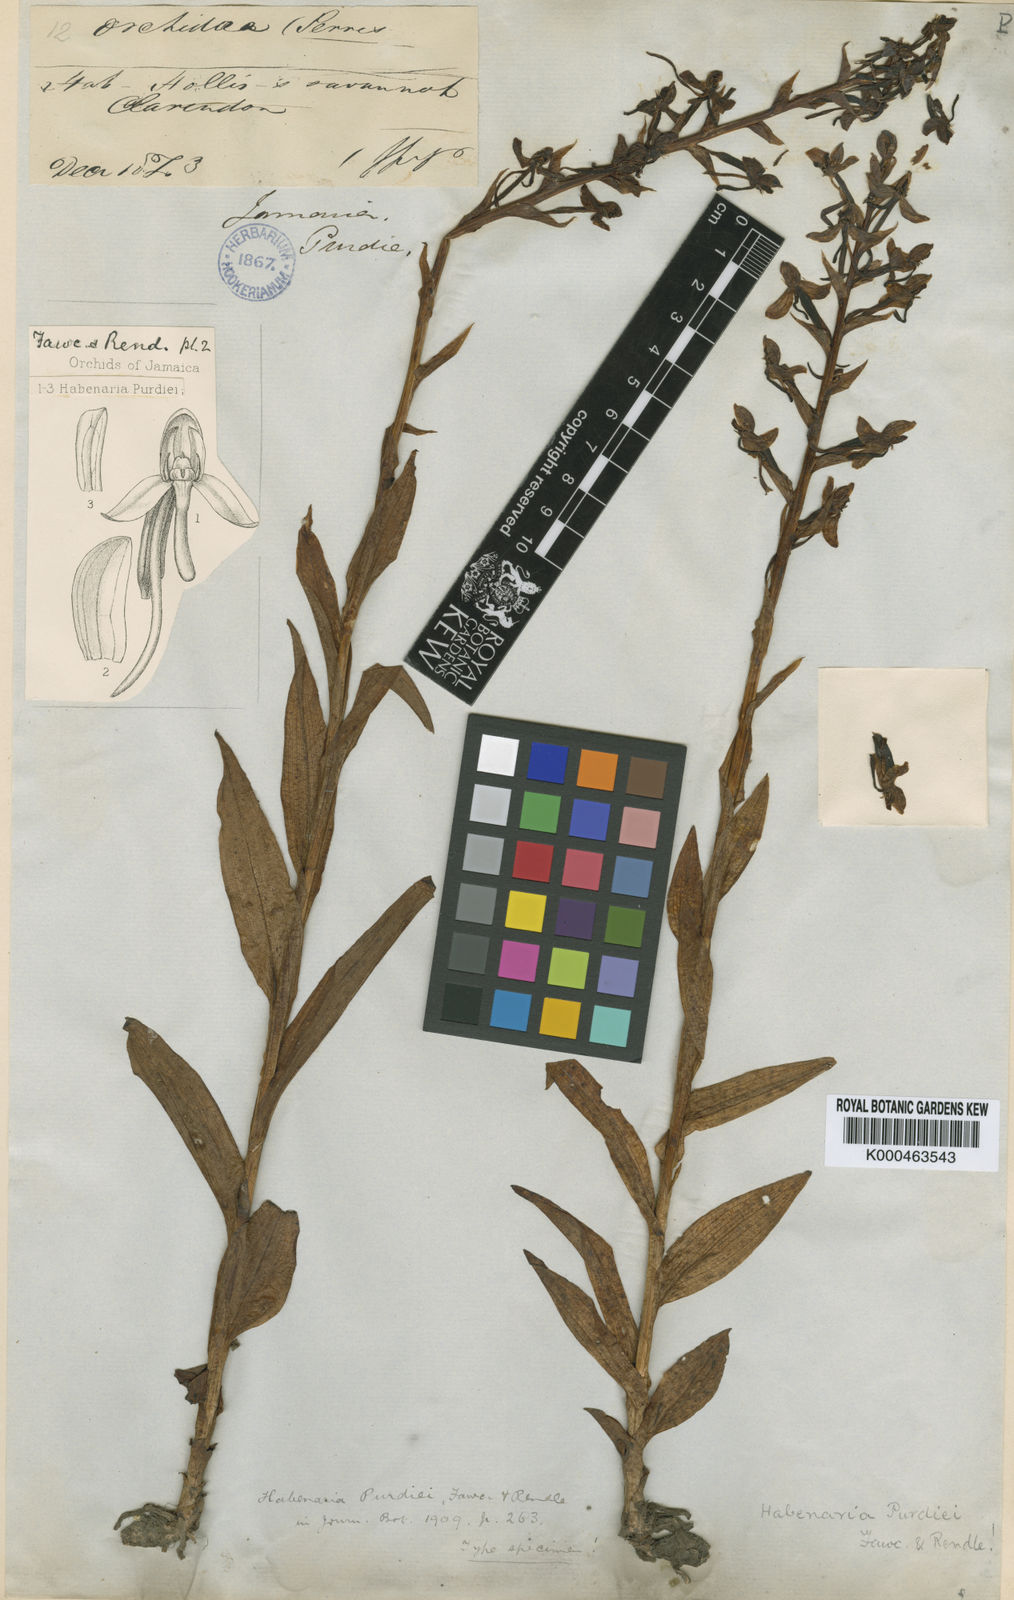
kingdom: Plantae
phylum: Tracheophyta
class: Liliopsida
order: Asparagales
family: Orchidaceae
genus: Habenaria
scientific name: Habenaria floribunda
